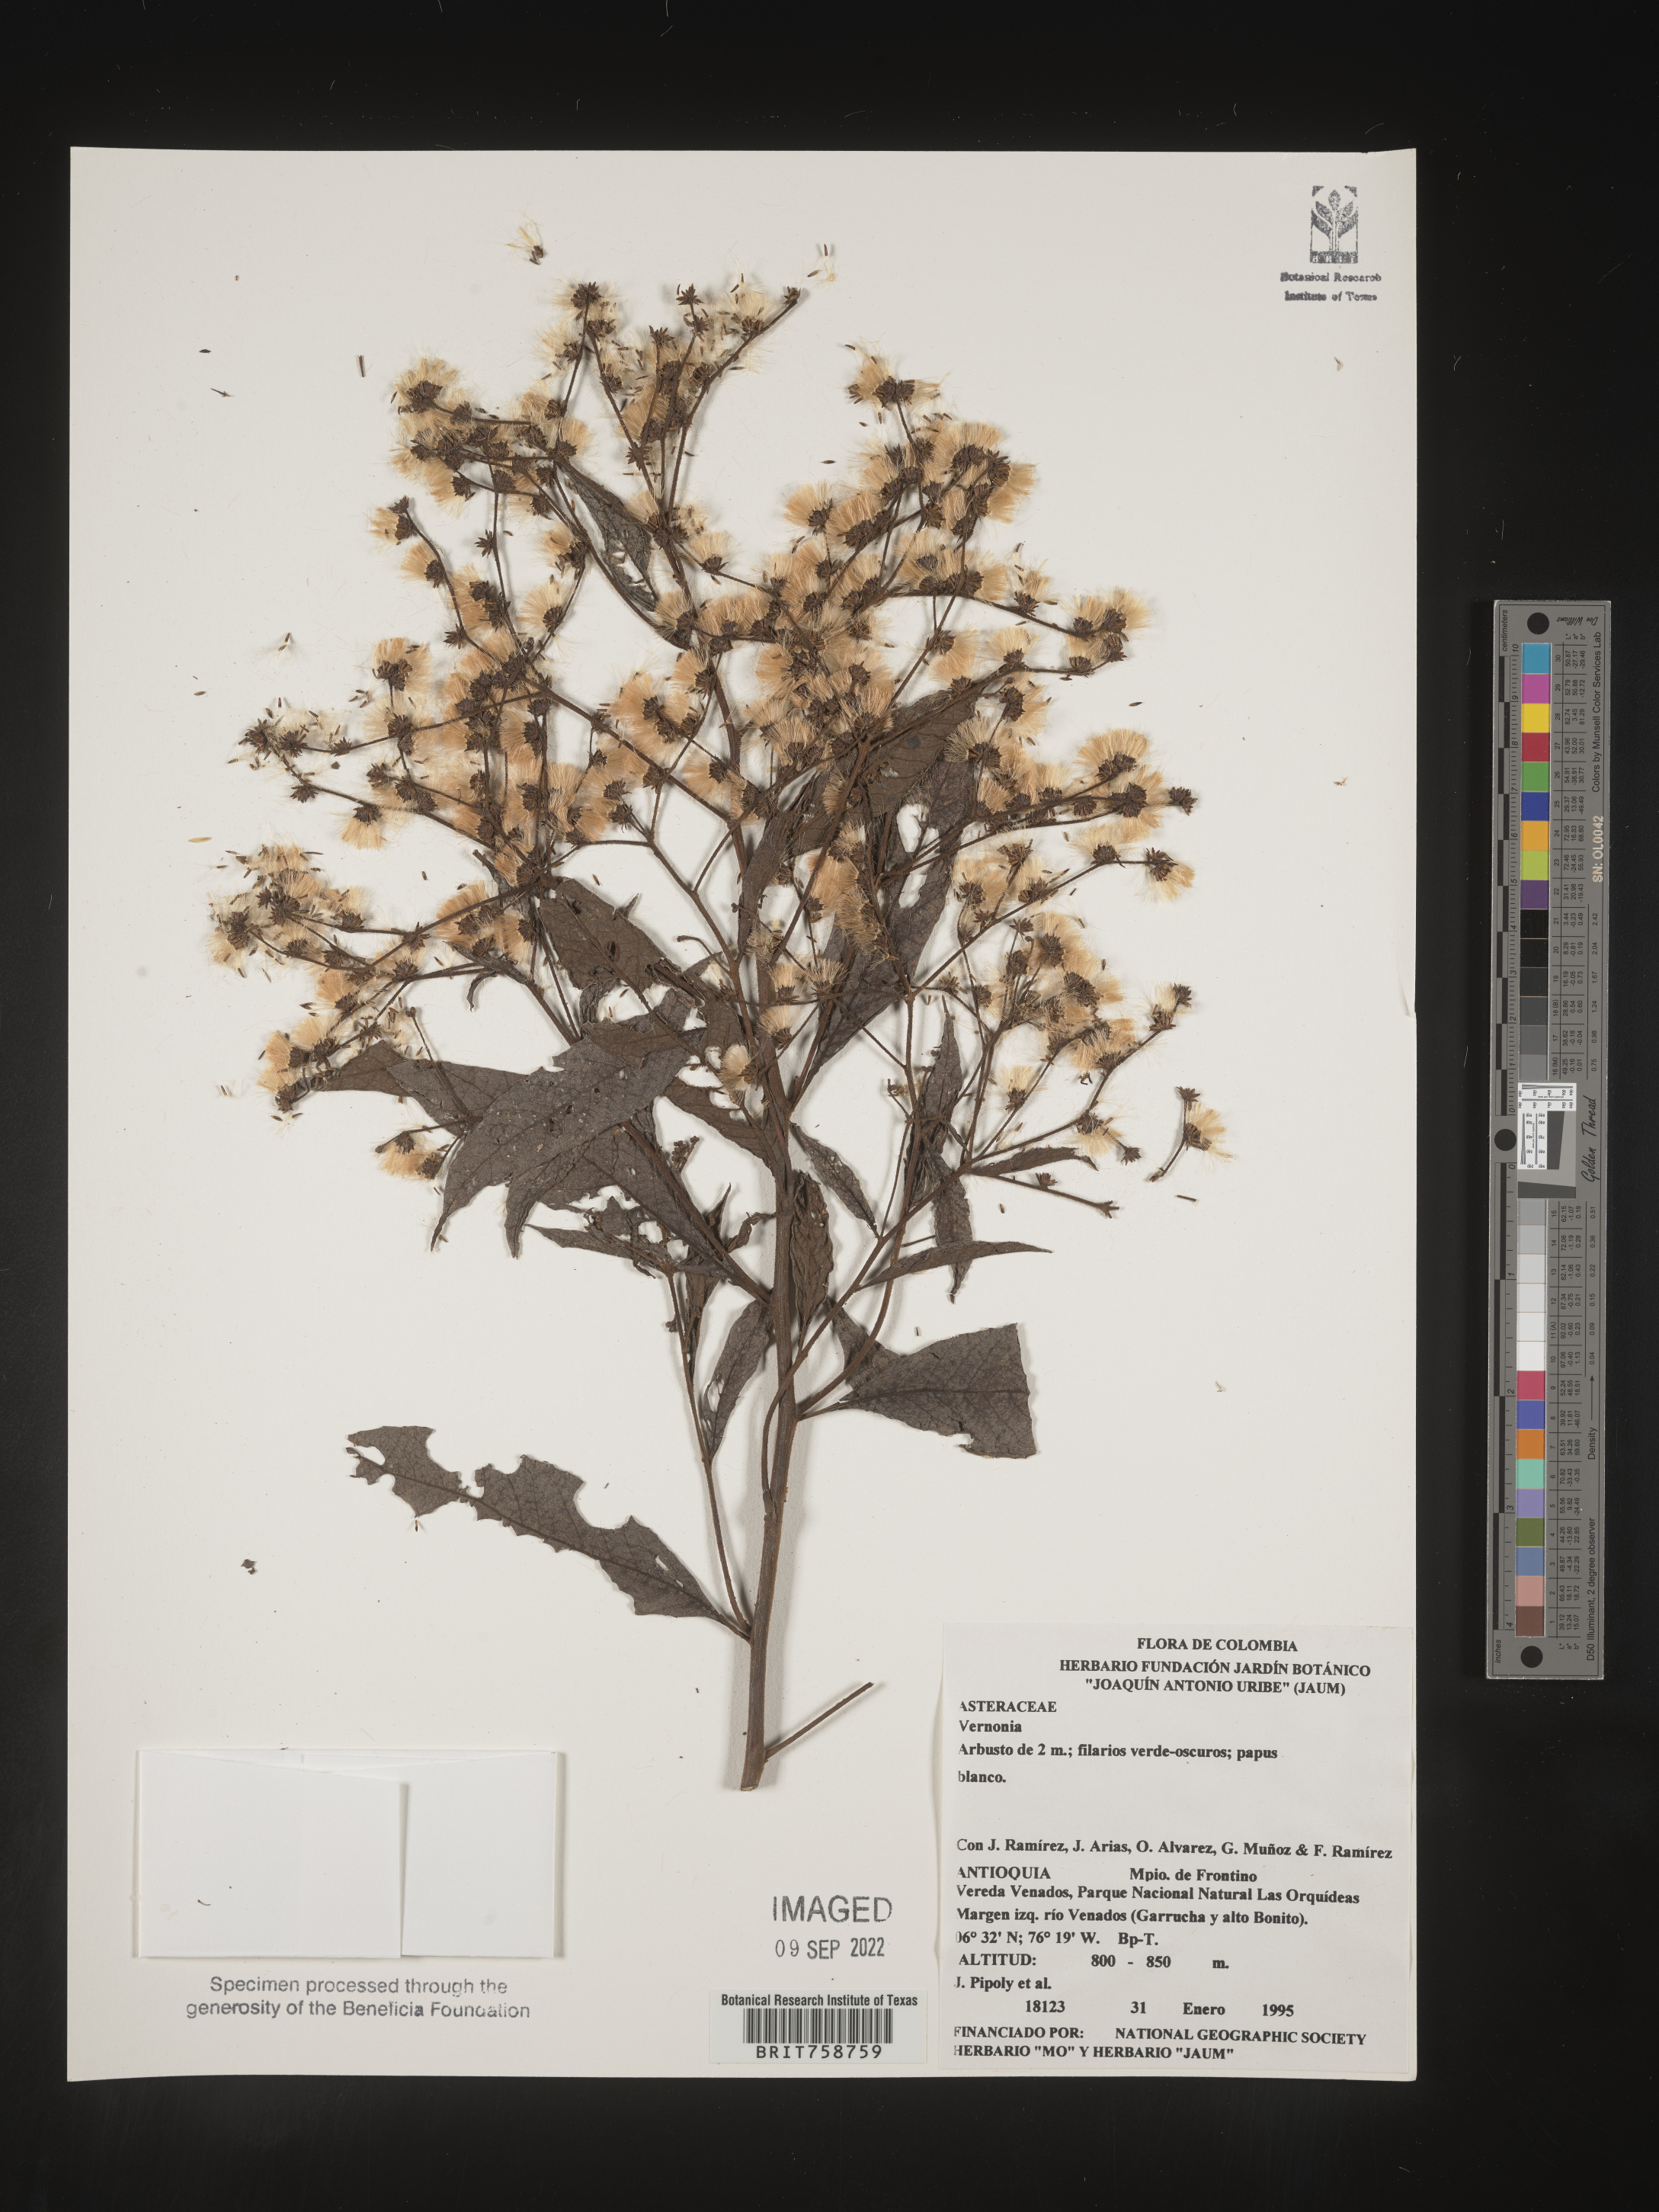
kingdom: Plantae
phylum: Tracheophyta
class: Magnoliopsida
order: Asterales
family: Asteraceae
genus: Vernonia
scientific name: Vernonia
